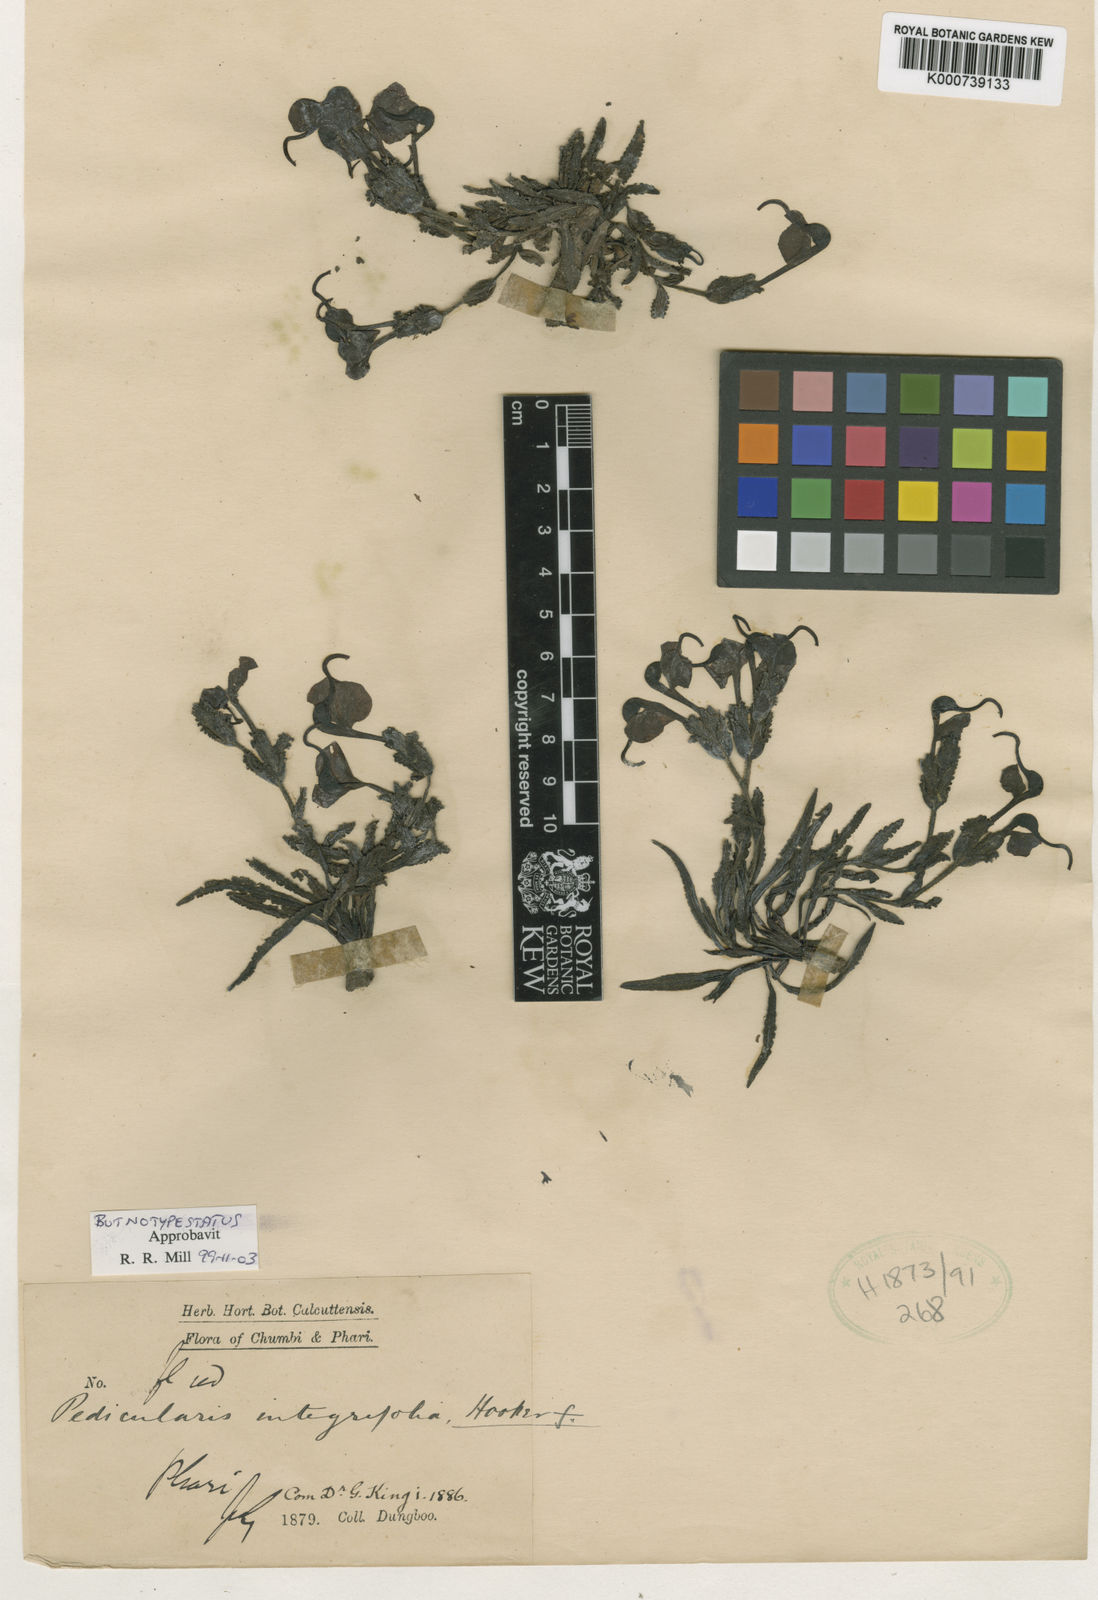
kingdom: Plantae
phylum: Tracheophyta
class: Magnoliopsida
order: Lamiales
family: Orobanchaceae
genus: Pedicularis
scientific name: Pedicularis integrifolia
